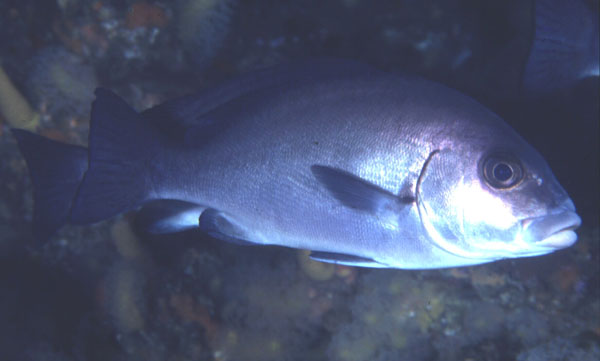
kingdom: Animalia
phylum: Chordata
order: Perciformes
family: Haemulidae
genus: Plectorhinchus
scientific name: Plectorhinchus chubbi
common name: Dusky rubberlip
